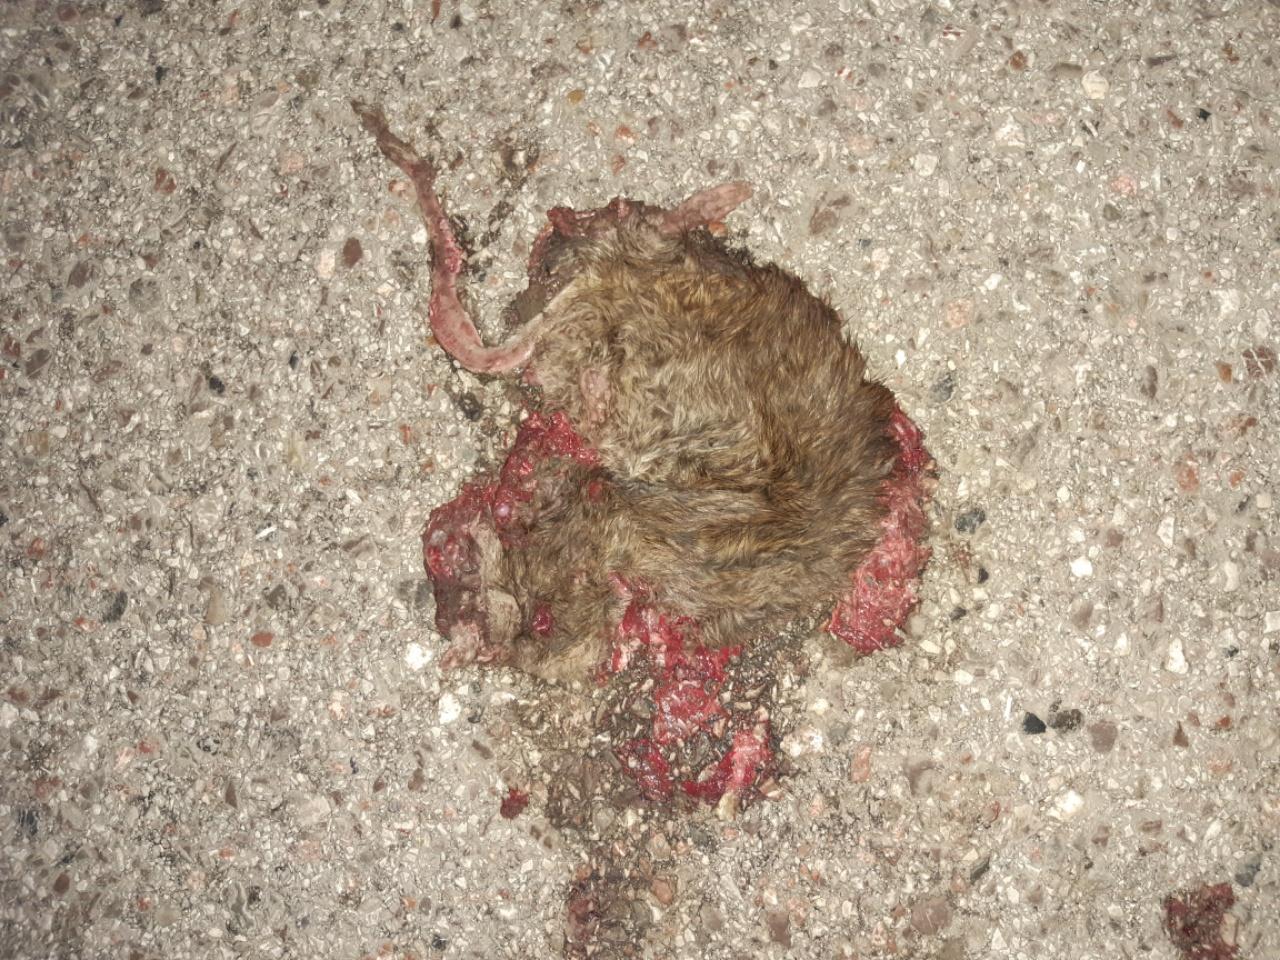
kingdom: Animalia
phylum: Chordata
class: Mammalia
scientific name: Mammalia
